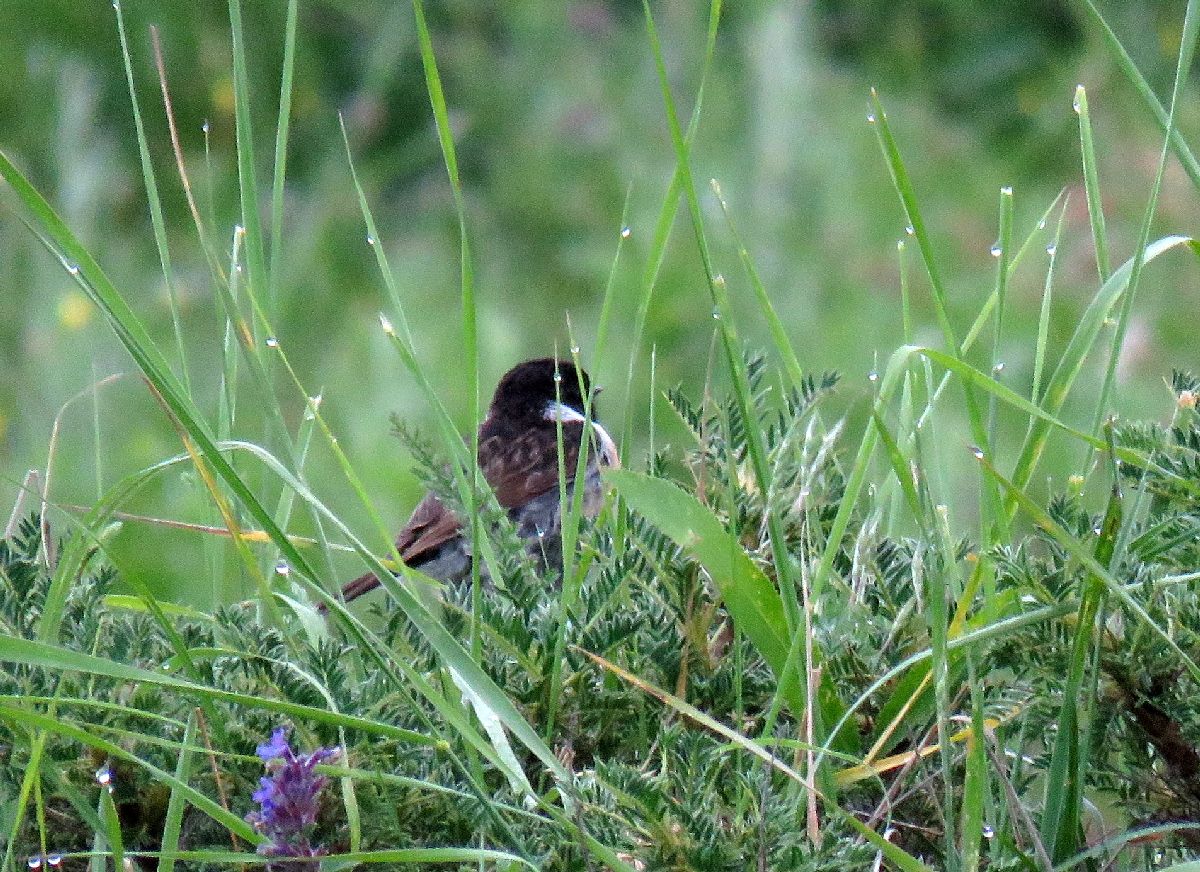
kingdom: Animalia
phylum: Chordata
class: Aves
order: Passeriformes
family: Muscicapidae
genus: Saxicola
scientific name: Saxicola maurus
